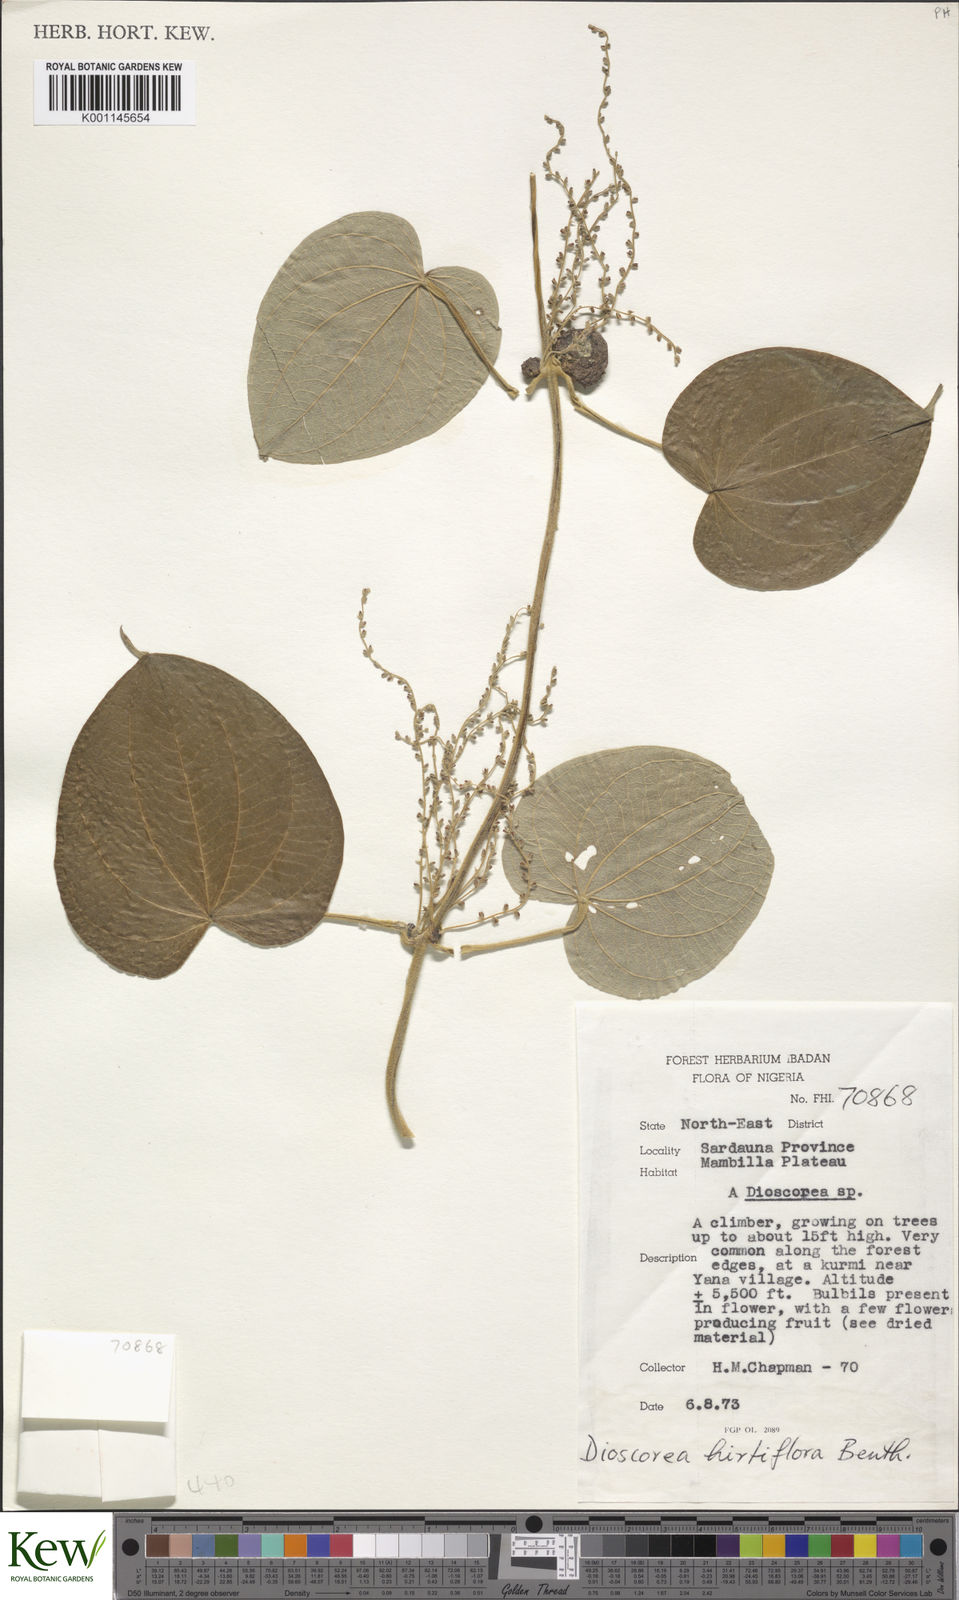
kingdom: Plantae
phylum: Tracheophyta
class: Liliopsida
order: Dioscoreales
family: Dioscoreaceae
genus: Dioscorea
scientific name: Dioscorea hirtiflora
